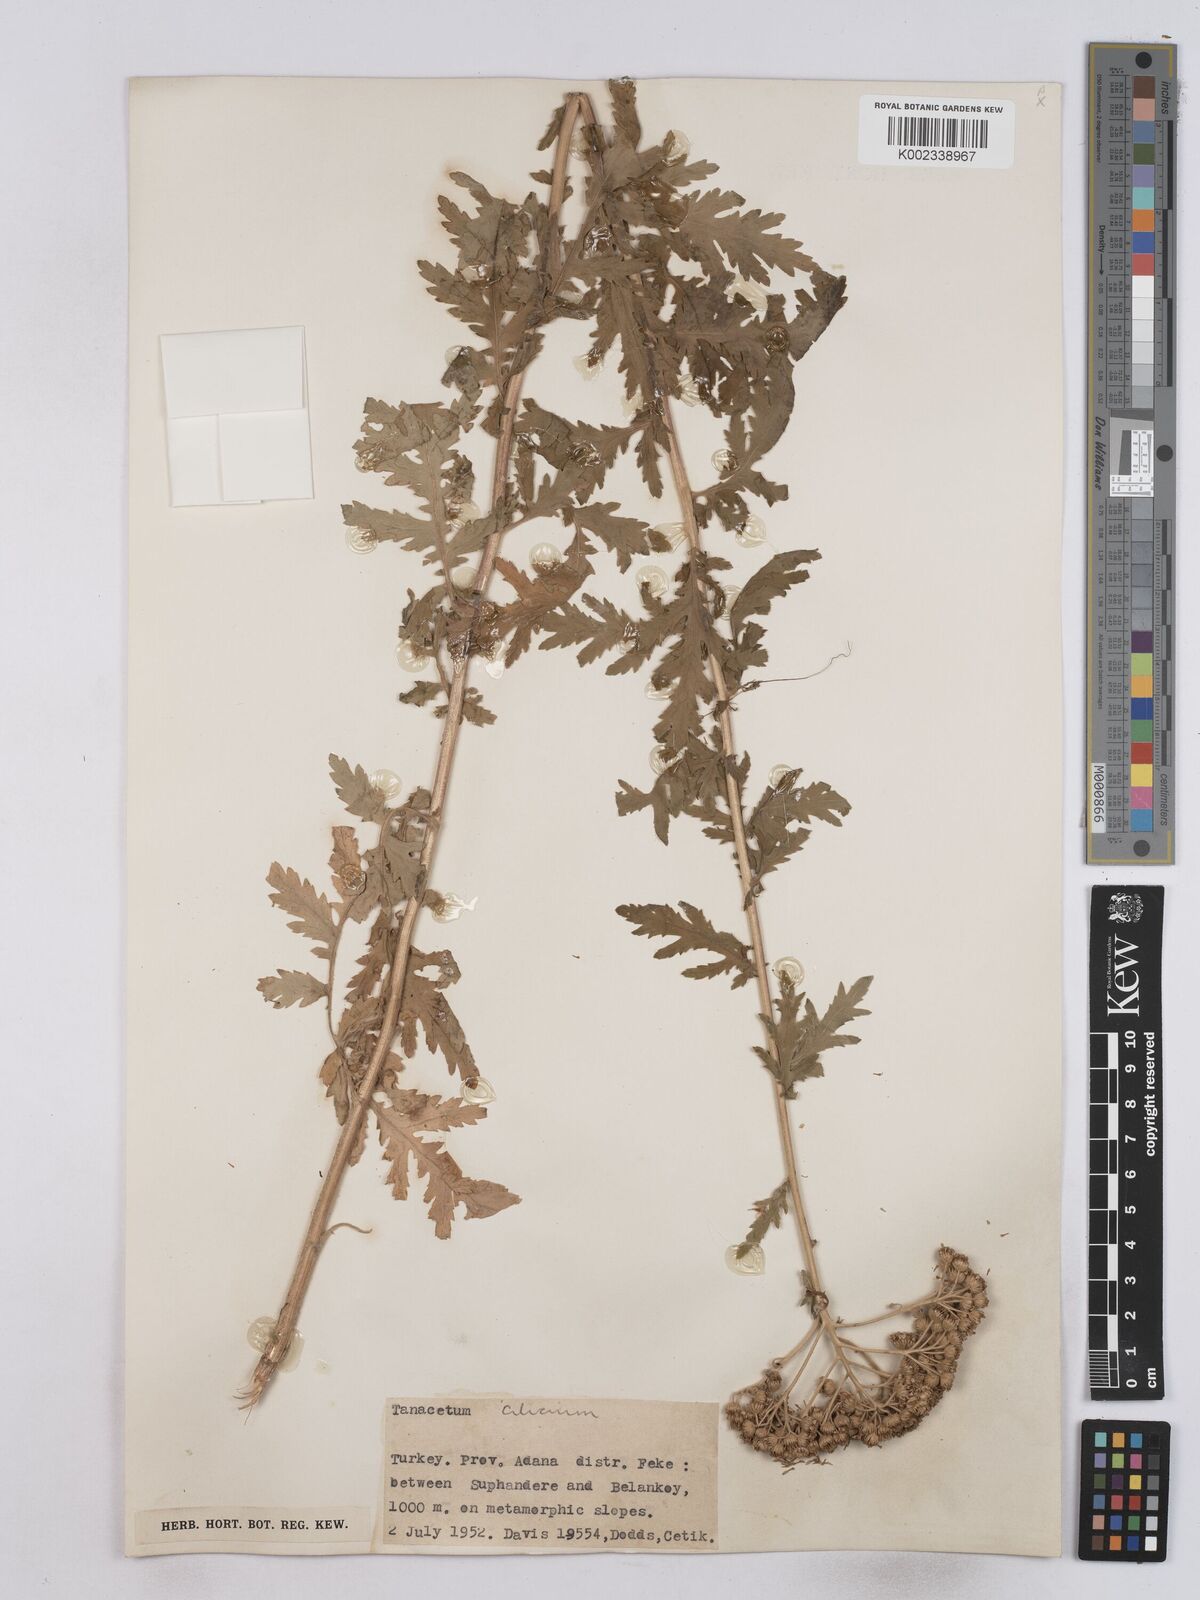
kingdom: Plantae
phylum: Tracheophyta
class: Magnoliopsida
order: Asterales
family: Asteraceae
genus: Tanacetum
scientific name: Tanacetum cilicicum
